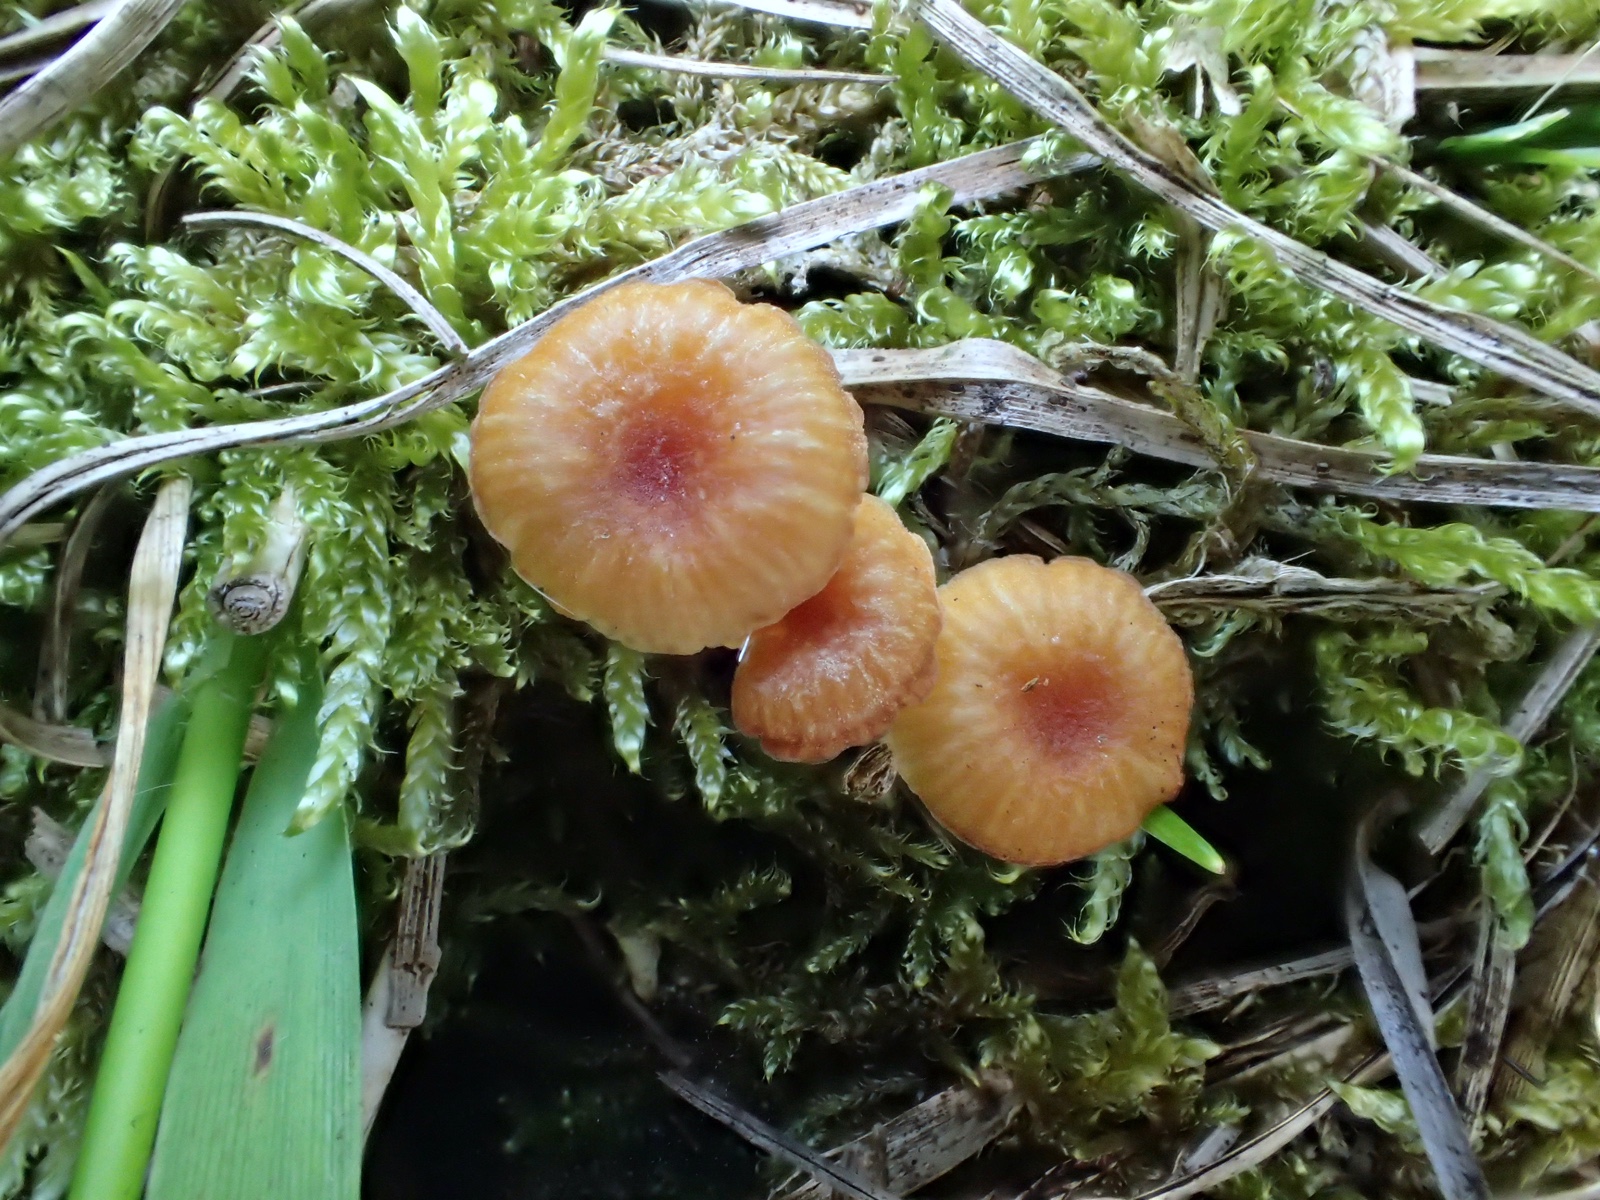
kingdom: Fungi
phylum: Basidiomycota
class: Agaricomycetes
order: Hymenochaetales
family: Rickenellaceae
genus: Rickenella
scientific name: Rickenella fibula
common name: orange mosnavlehat
